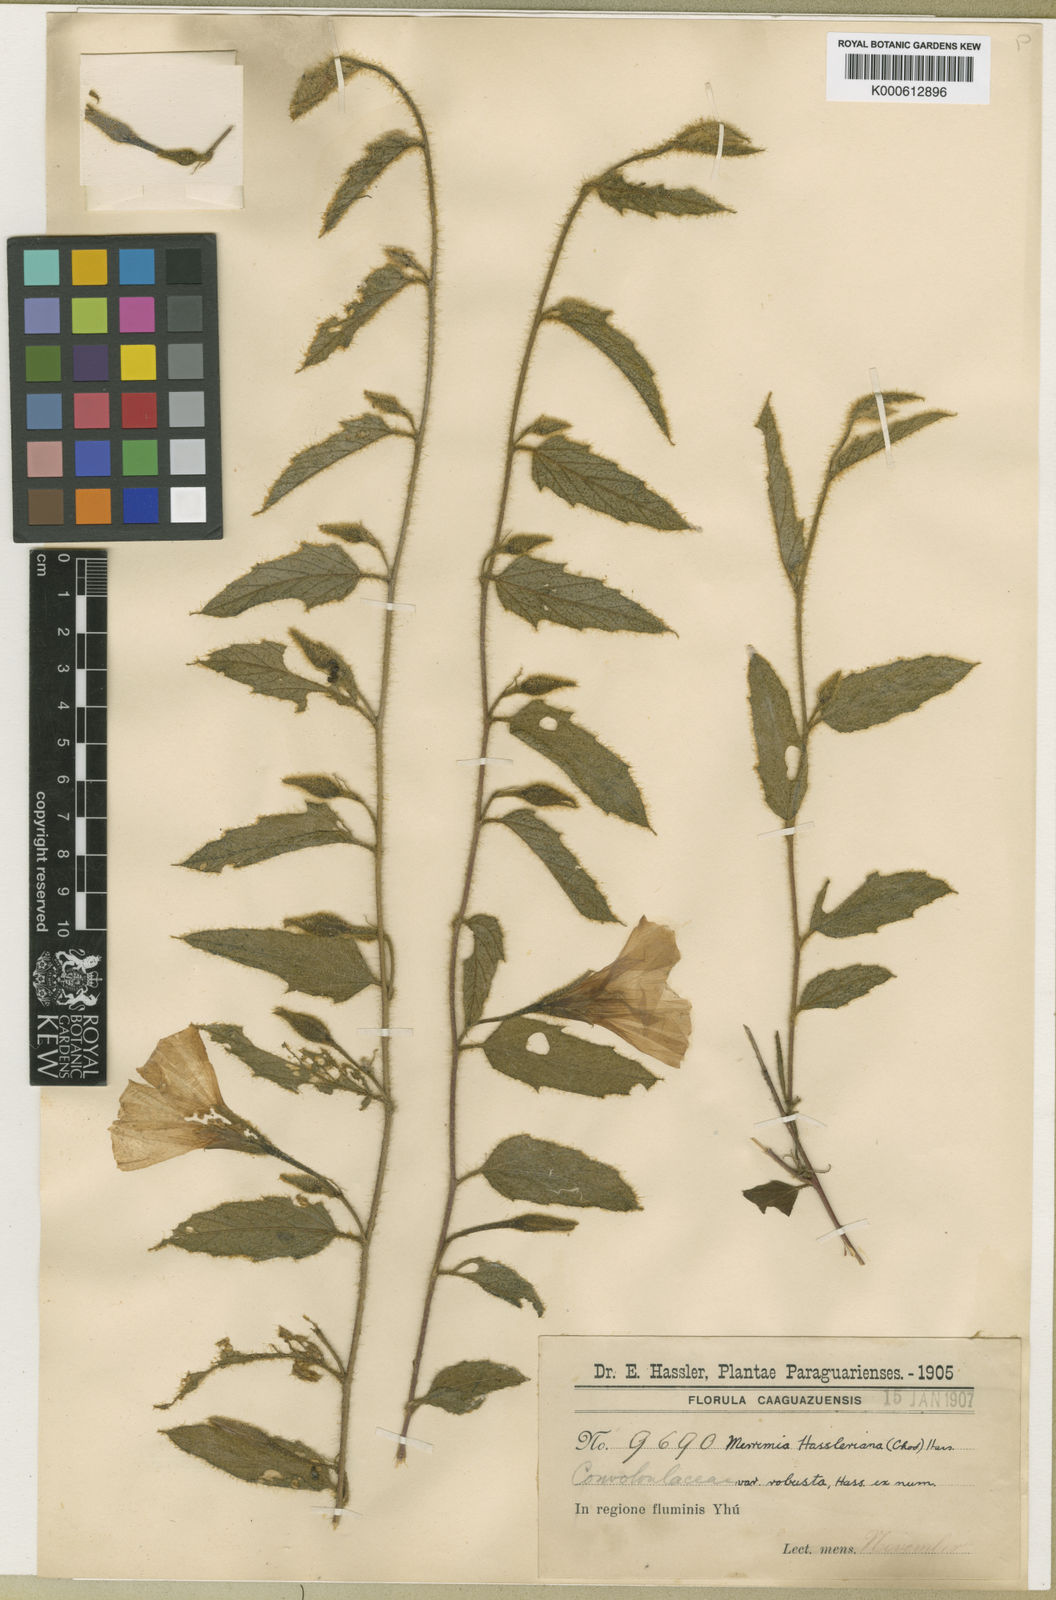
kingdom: Plantae
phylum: Tracheophyta
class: Magnoliopsida
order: Solanales
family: Convolvulaceae
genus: Distimake
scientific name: Distimake hasslerianus
